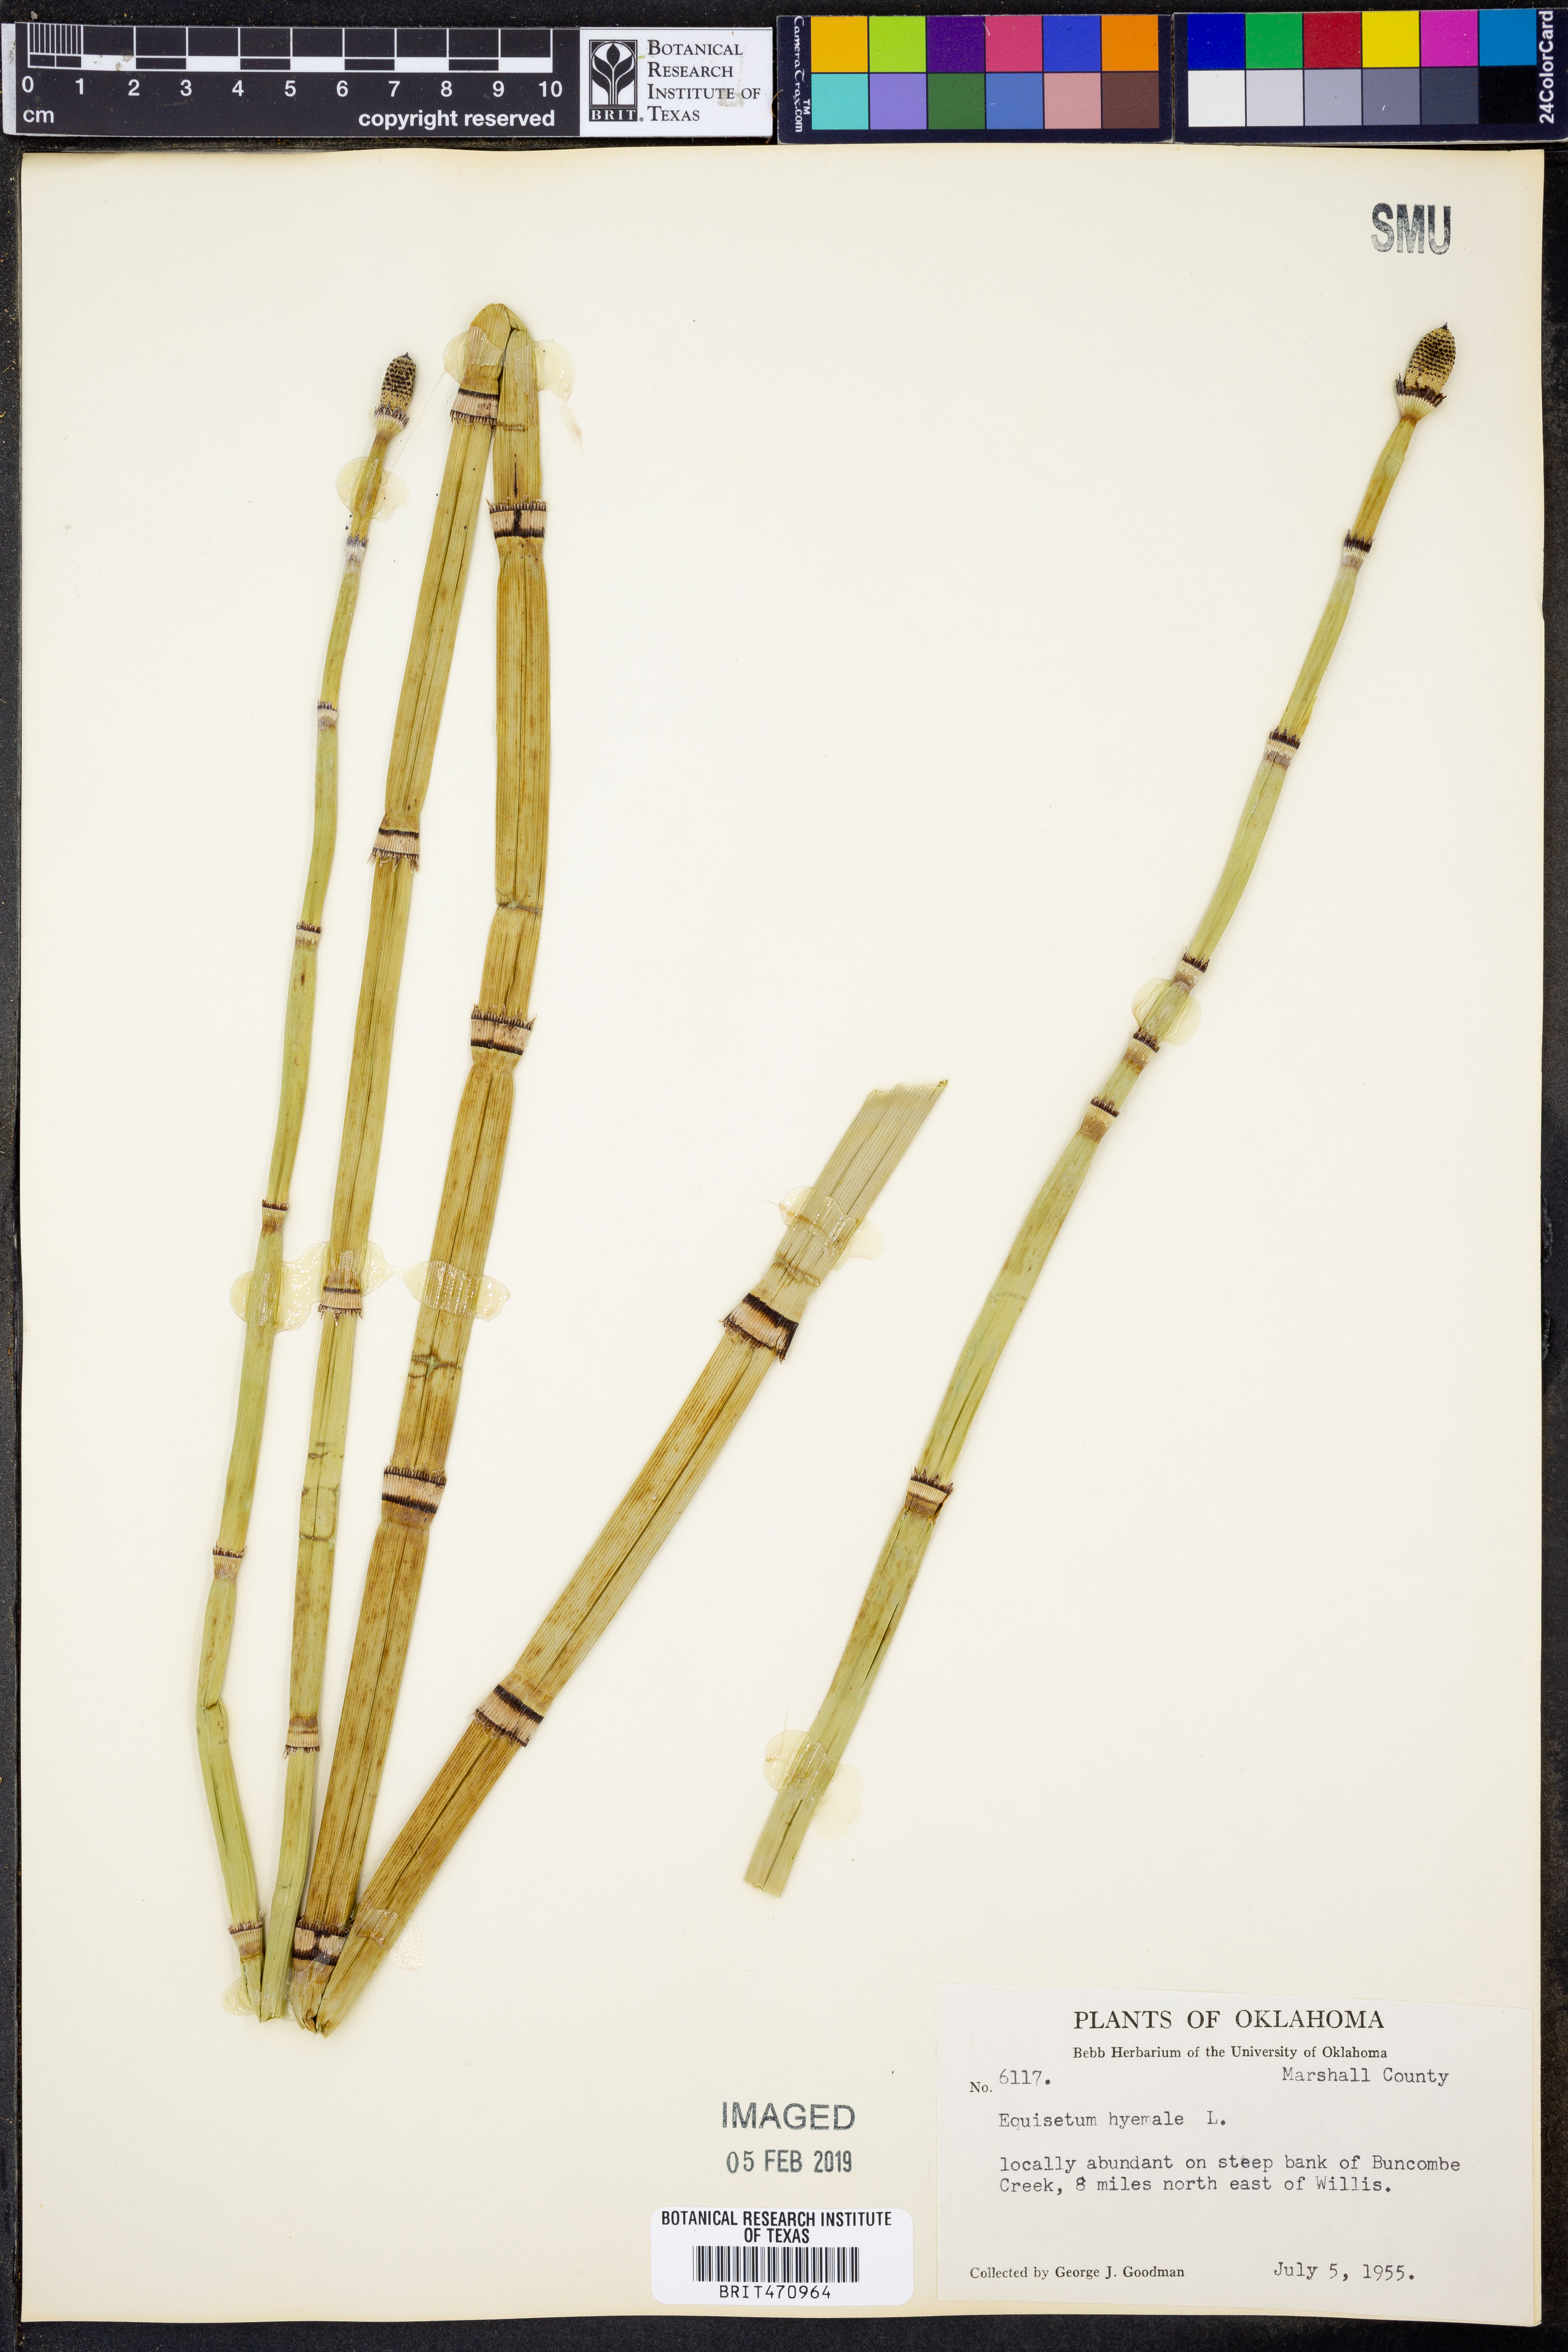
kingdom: Plantae
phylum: Tracheophyta
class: Polypodiopsida
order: Equisetales
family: Equisetaceae
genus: Equisetum
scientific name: Equisetum hyemale
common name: Rough horsetail
